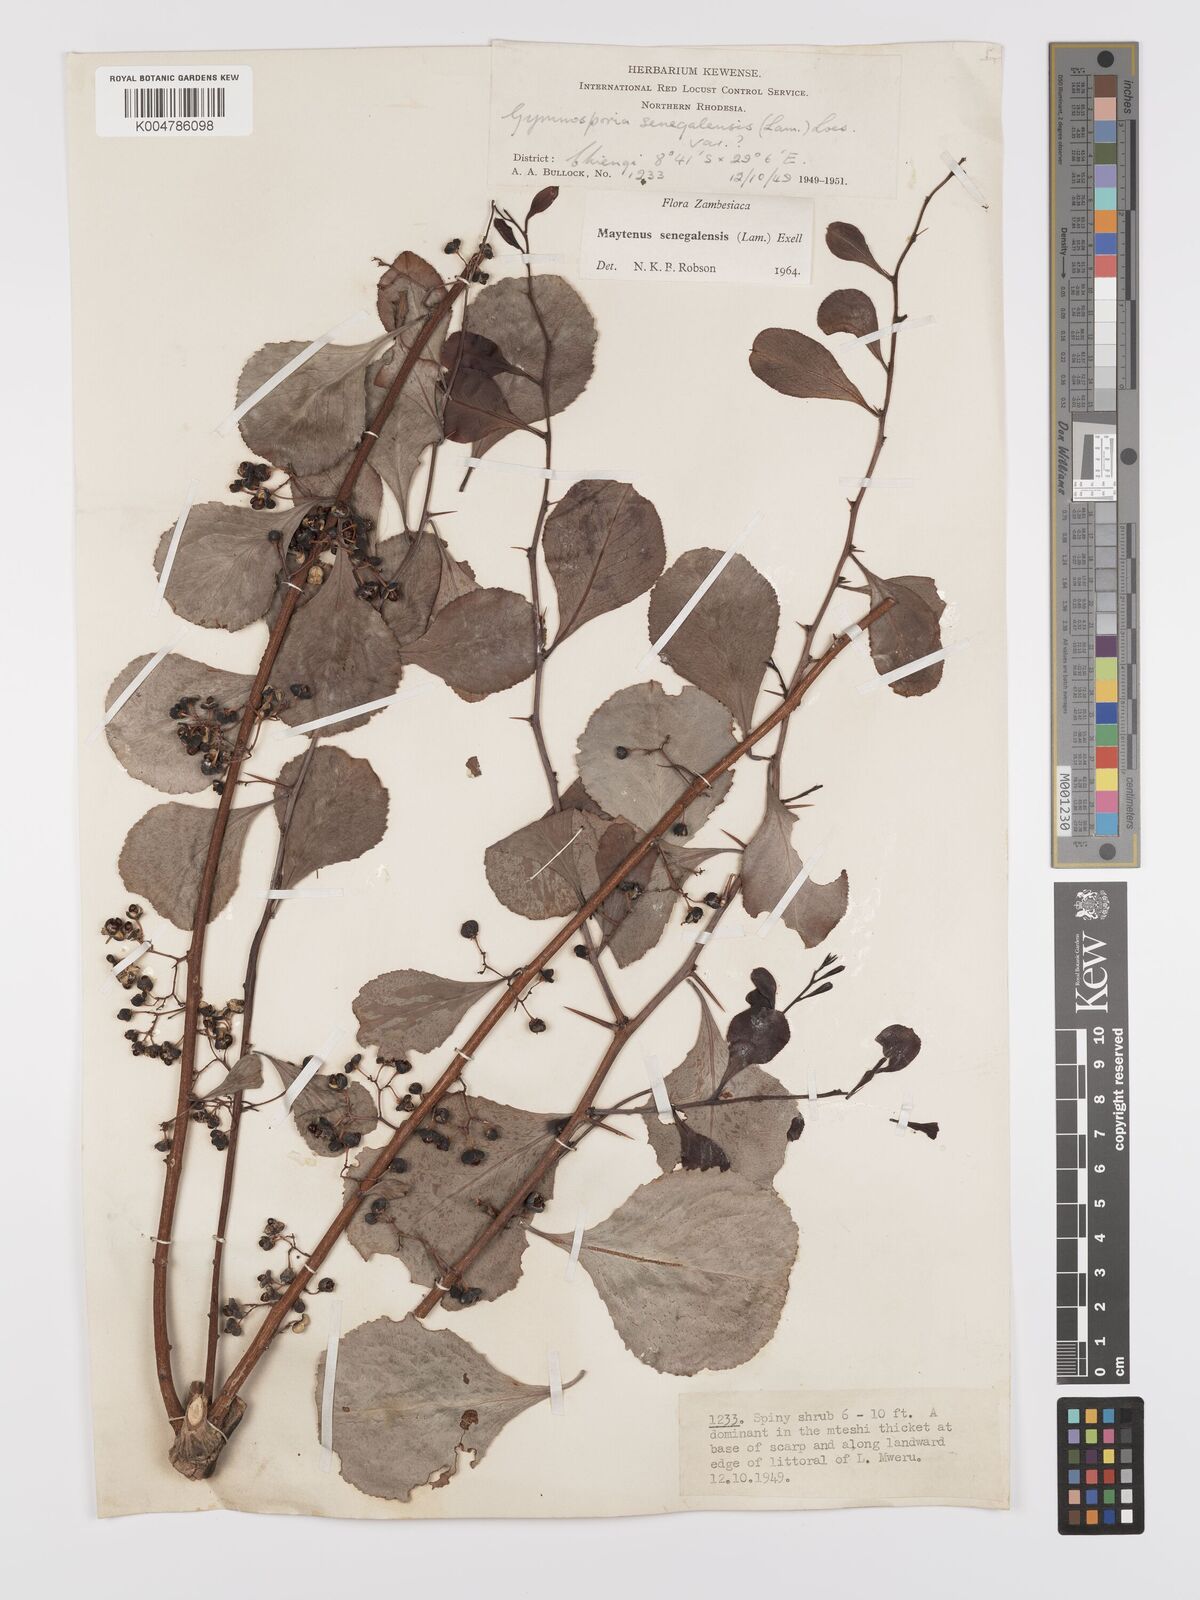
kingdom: Plantae
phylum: Tracheophyta
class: Magnoliopsida
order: Celastrales
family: Celastraceae
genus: Gymnosporia
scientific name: Gymnosporia senegalensis
